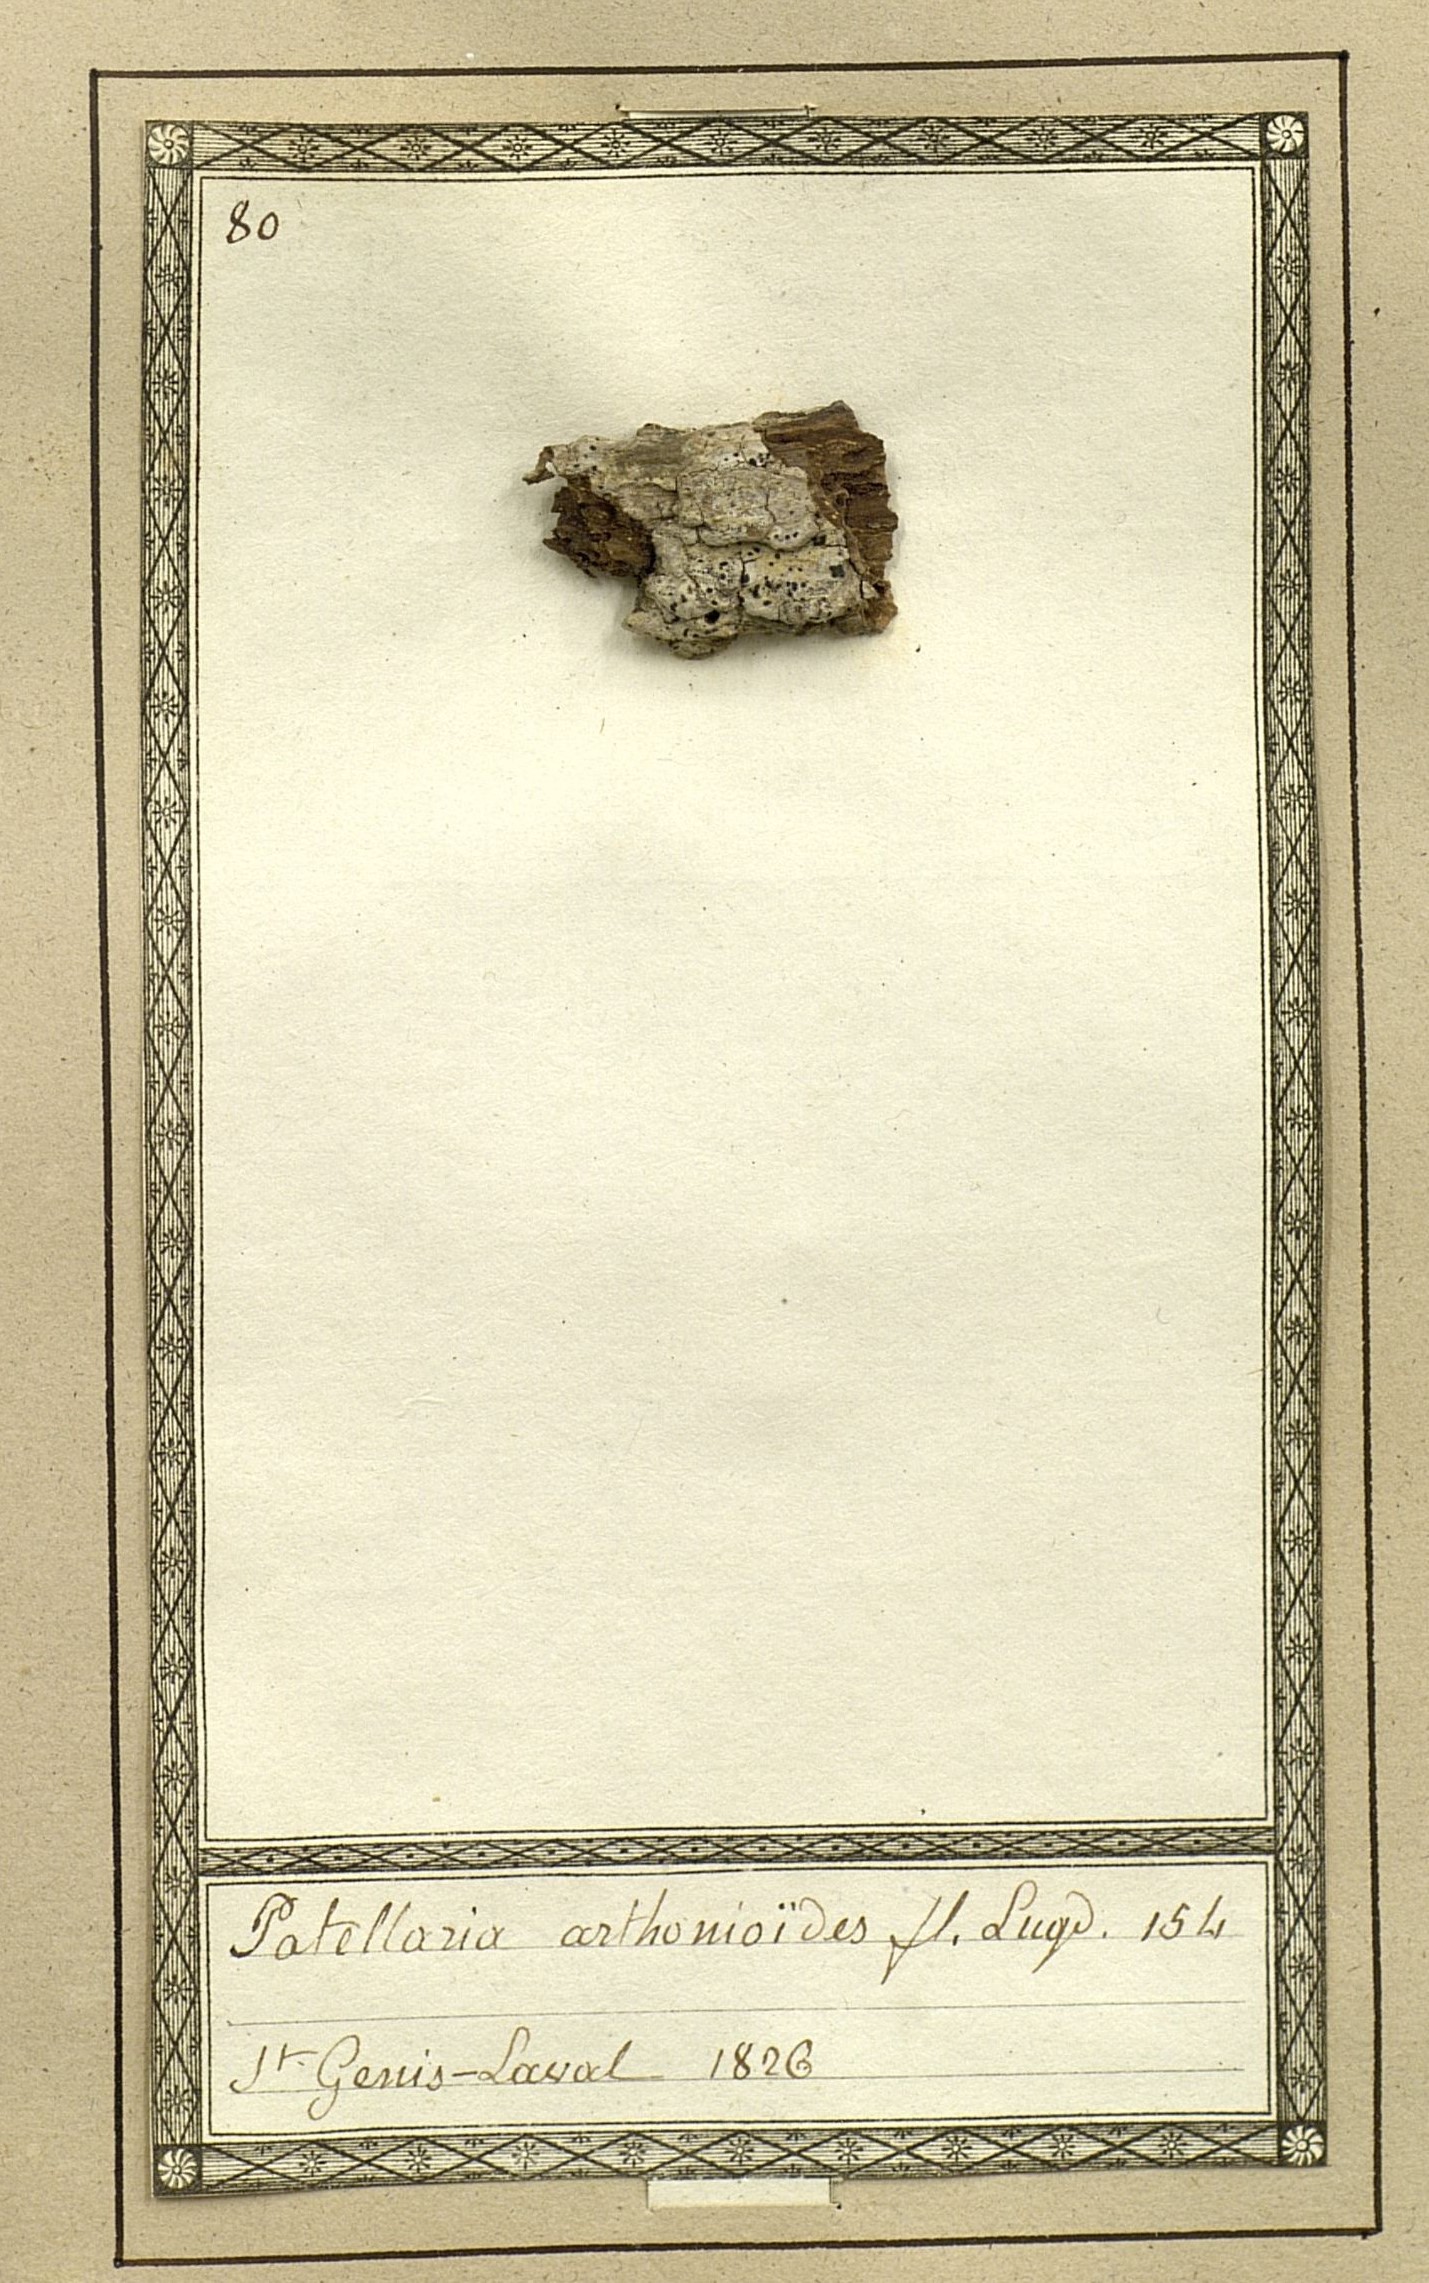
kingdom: Fungi
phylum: Ascomycota
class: Arthoniomycetes
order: Arthoniales
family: Arthoniaceae
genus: Arthonia
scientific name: Arthonia arthonioides
